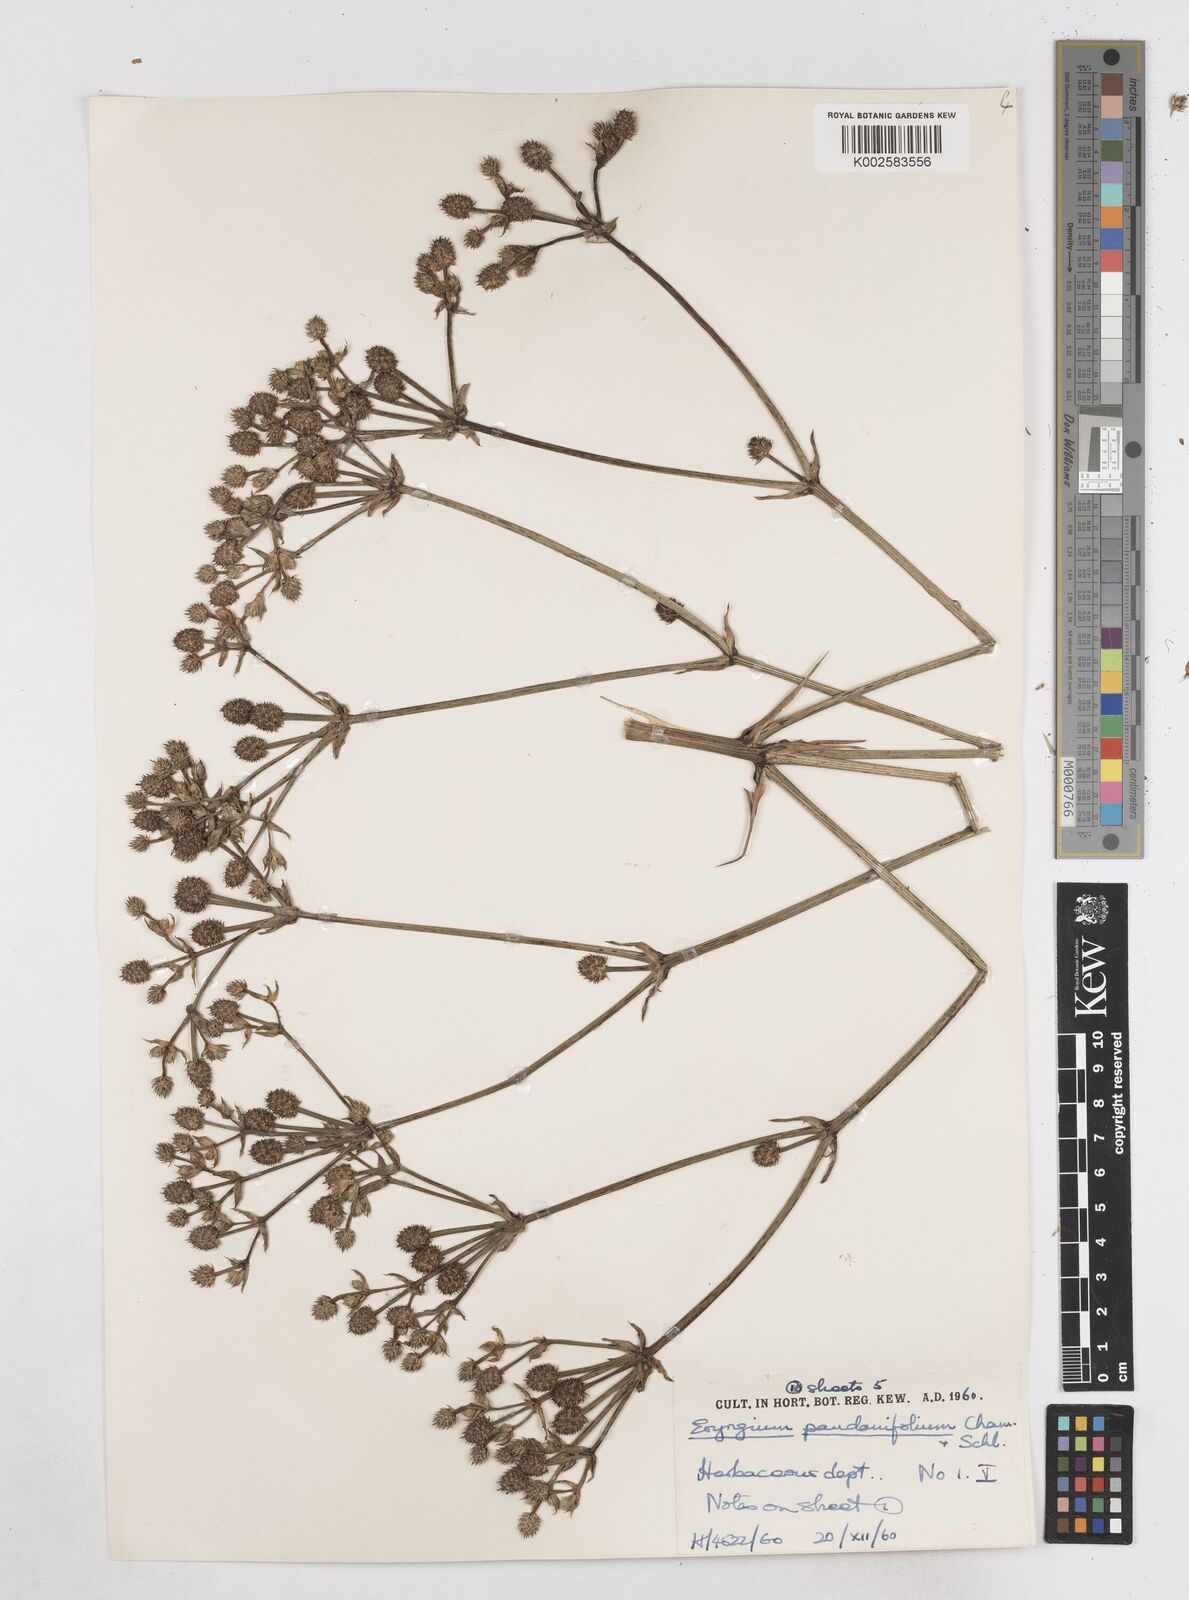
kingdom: Plantae
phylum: Tracheophyta
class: Magnoliopsida
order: Apiales
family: Apiaceae
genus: Eryngium
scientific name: Eryngium pandanifolium
